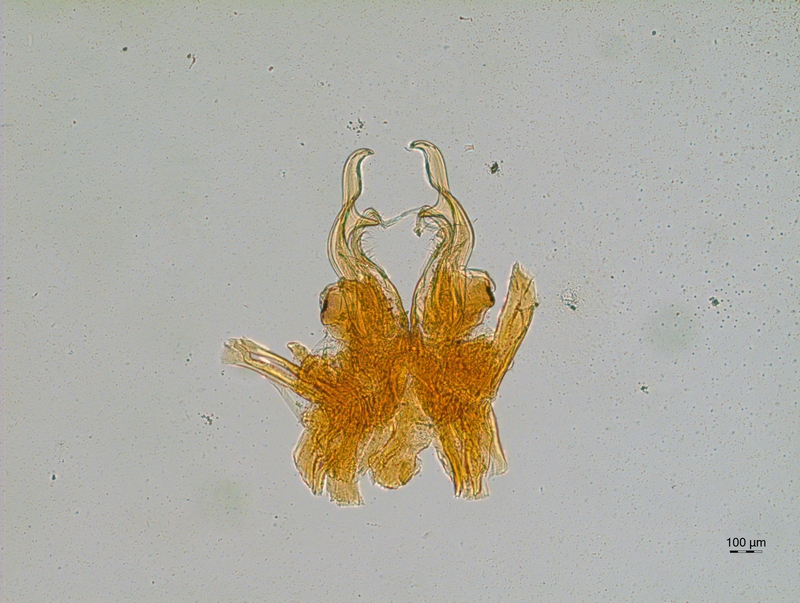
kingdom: Animalia
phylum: Arthropoda
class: Diplopoda
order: Chordeumatida
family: Chordeumatidae
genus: Mycogona
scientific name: Mycogona germanica
